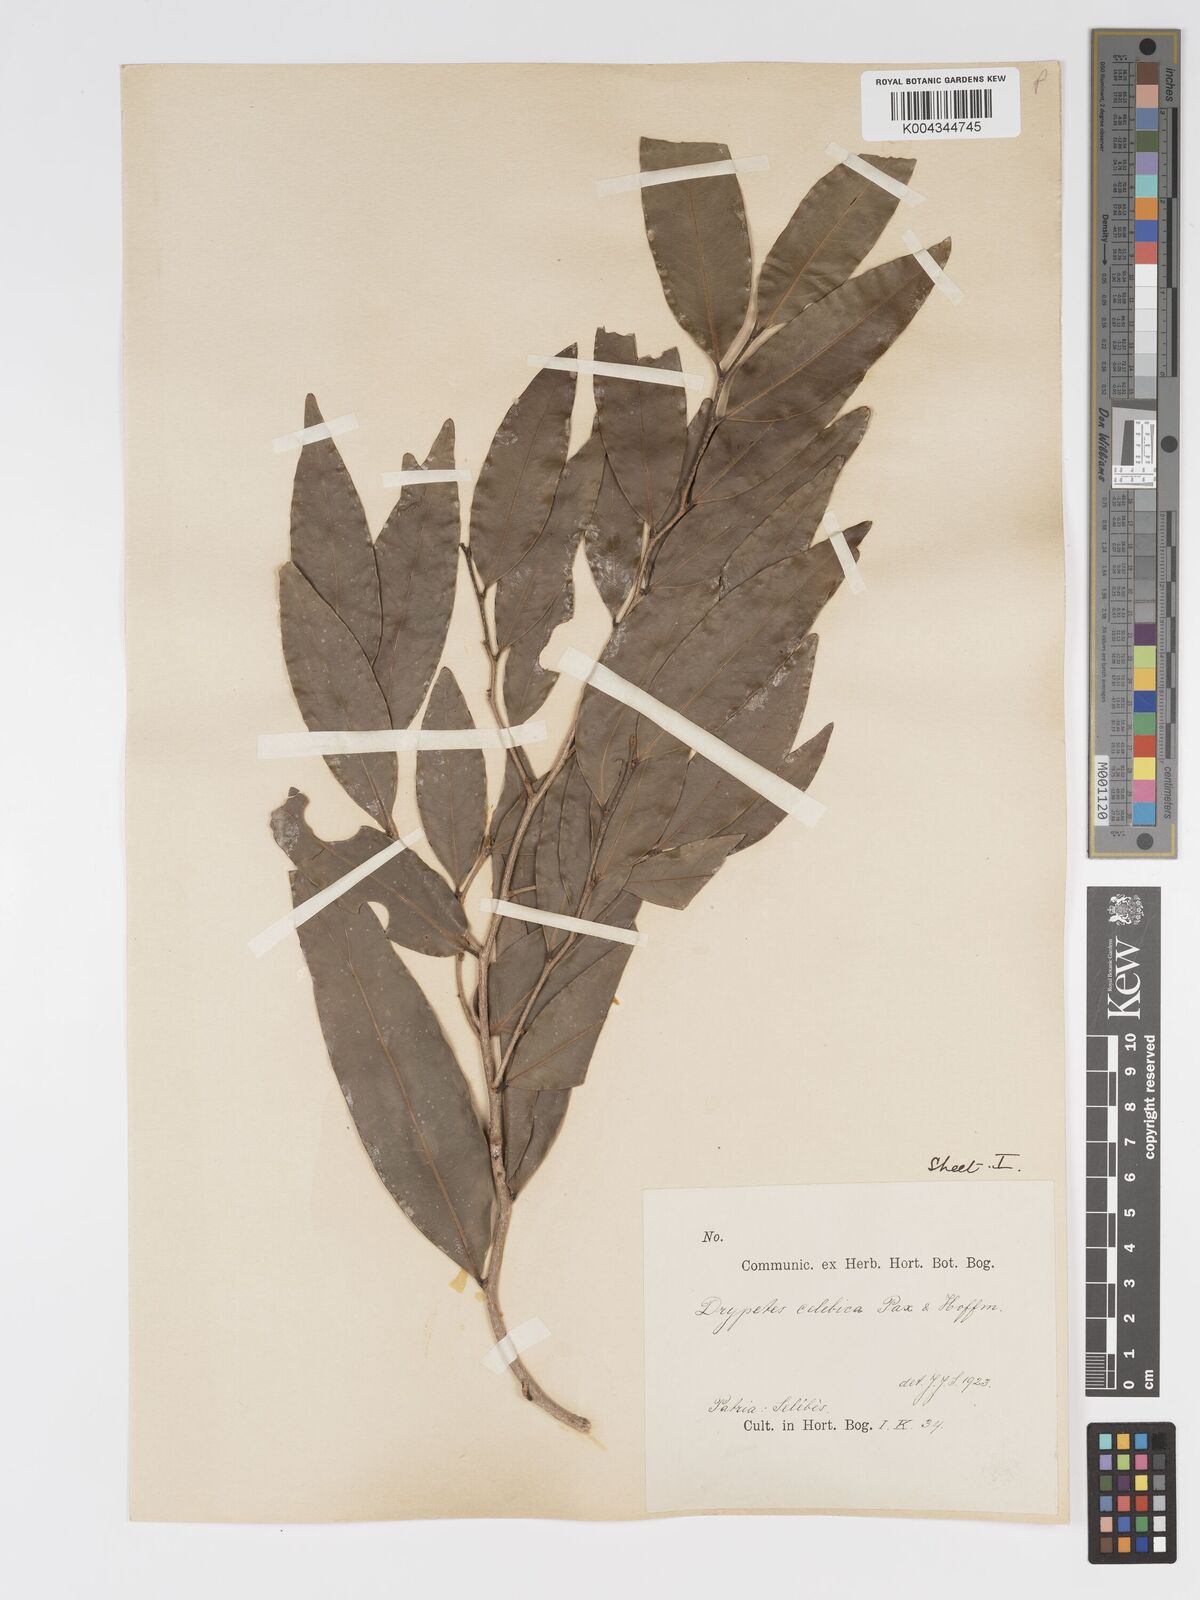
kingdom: Plantae
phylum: Tracheophyta
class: Magnoliopsida
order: Malpighiales
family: Putranjivaceae
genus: Drypetes
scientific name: Drypetes celebica
